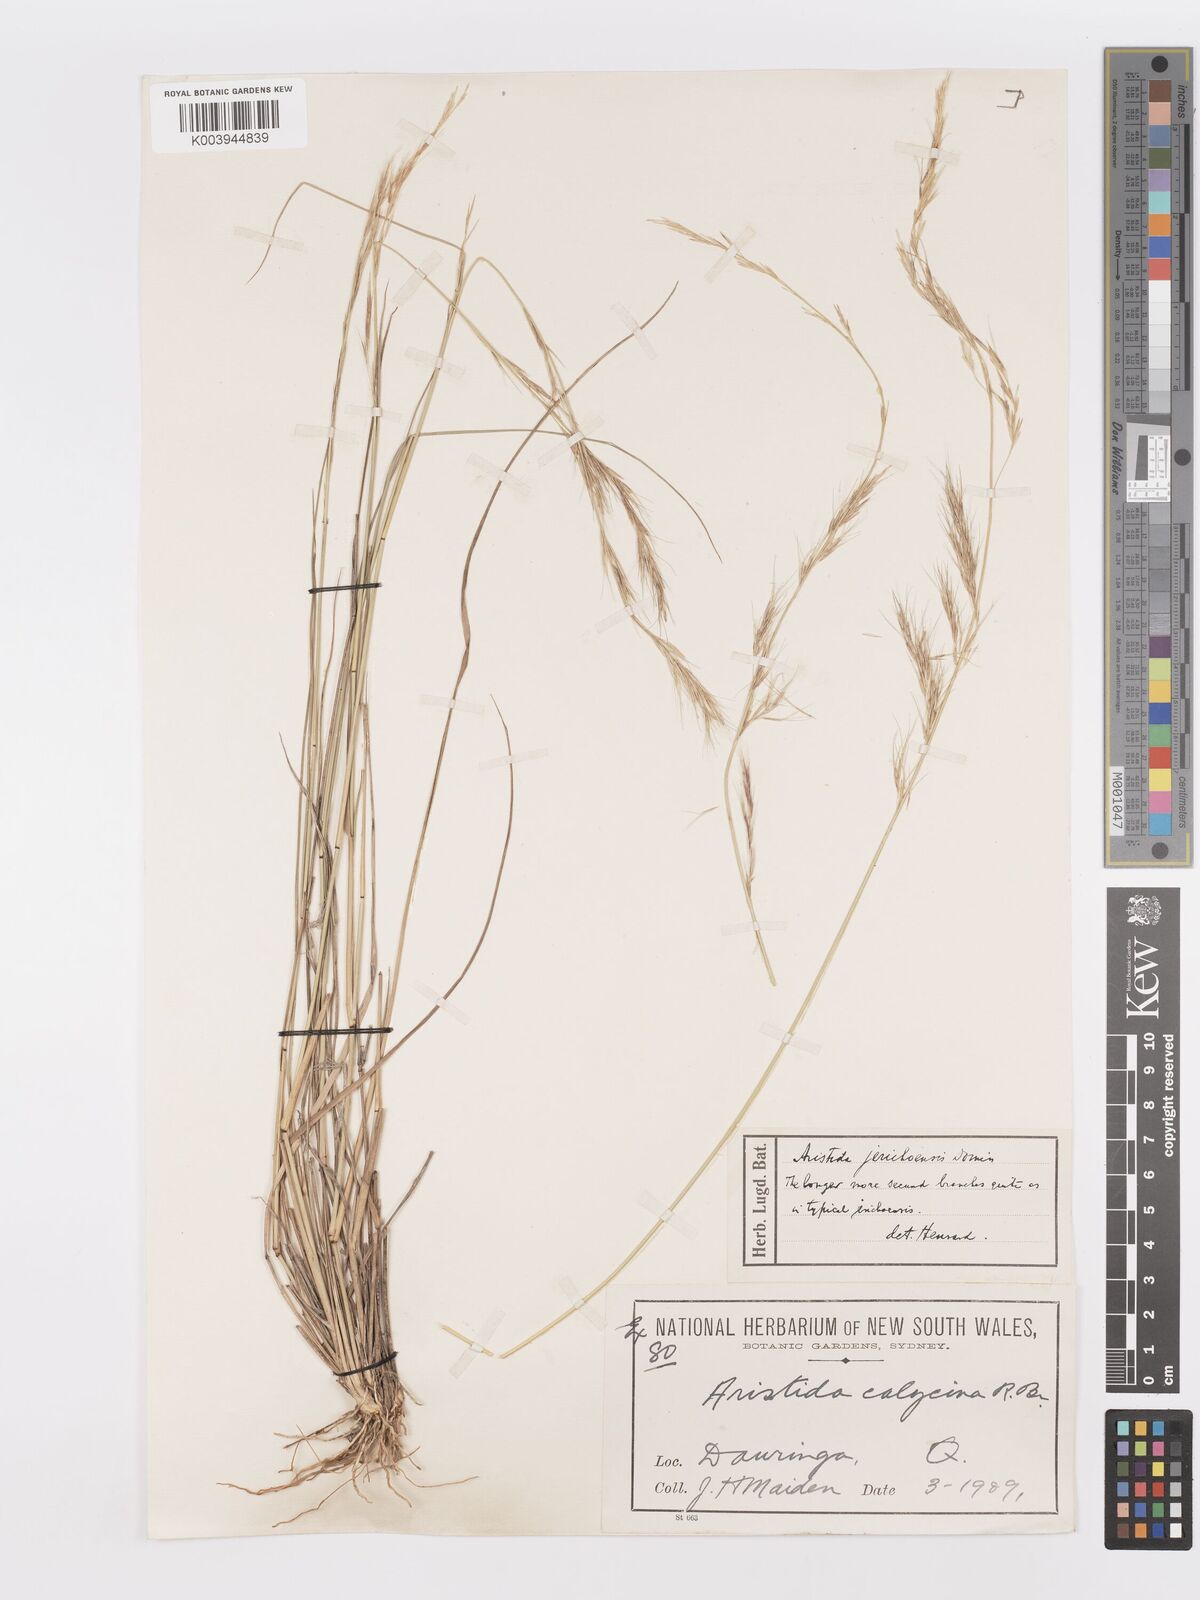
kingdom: Plantae
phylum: Tracheophyta
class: Liliopsida
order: Poales
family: Poaceae
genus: Aristida
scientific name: Aristida jerichoensis
